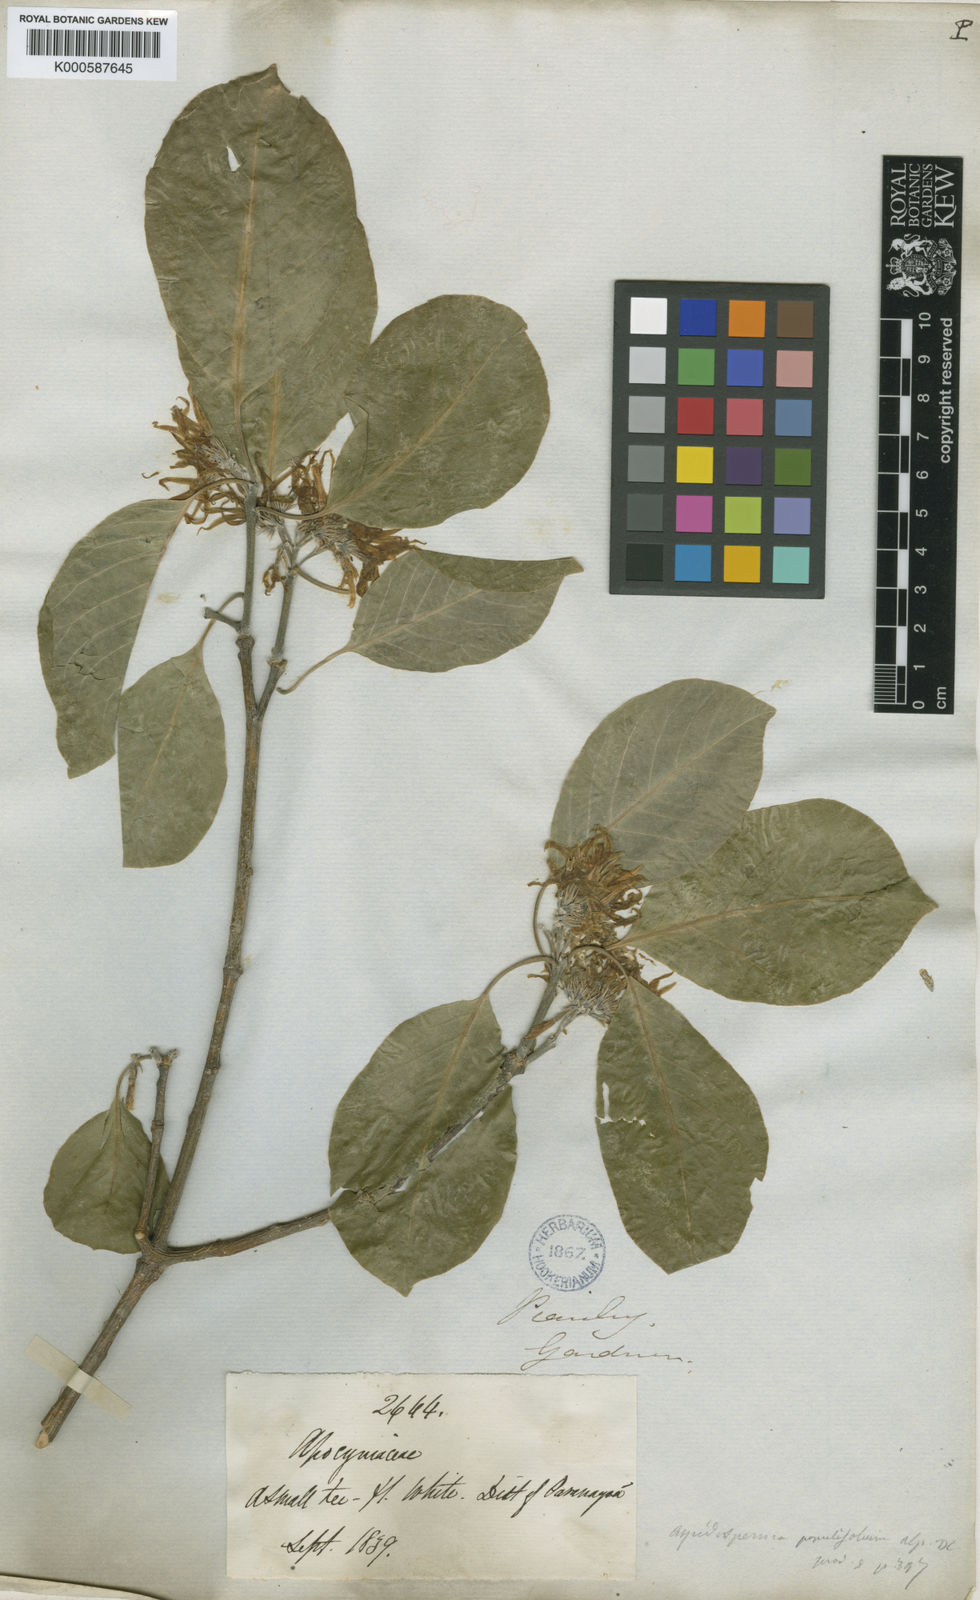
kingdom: Plantae
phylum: Tracheophyta
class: Magnoliopsida
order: Gentianales
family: Apocynaceae
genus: Aspidosperma
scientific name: Aspidosperma pyrifolium
